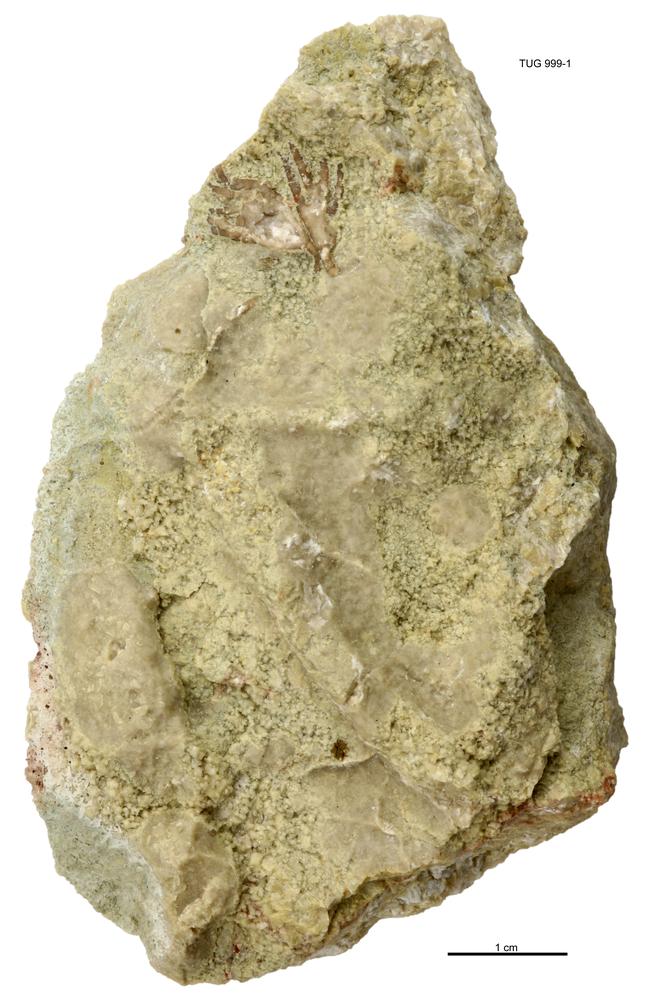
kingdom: Animalia
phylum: Echinodermata
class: Crinoidea
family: Dimerocrinitidae
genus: Oepikicrinus
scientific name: Oepikicrinus perensae
